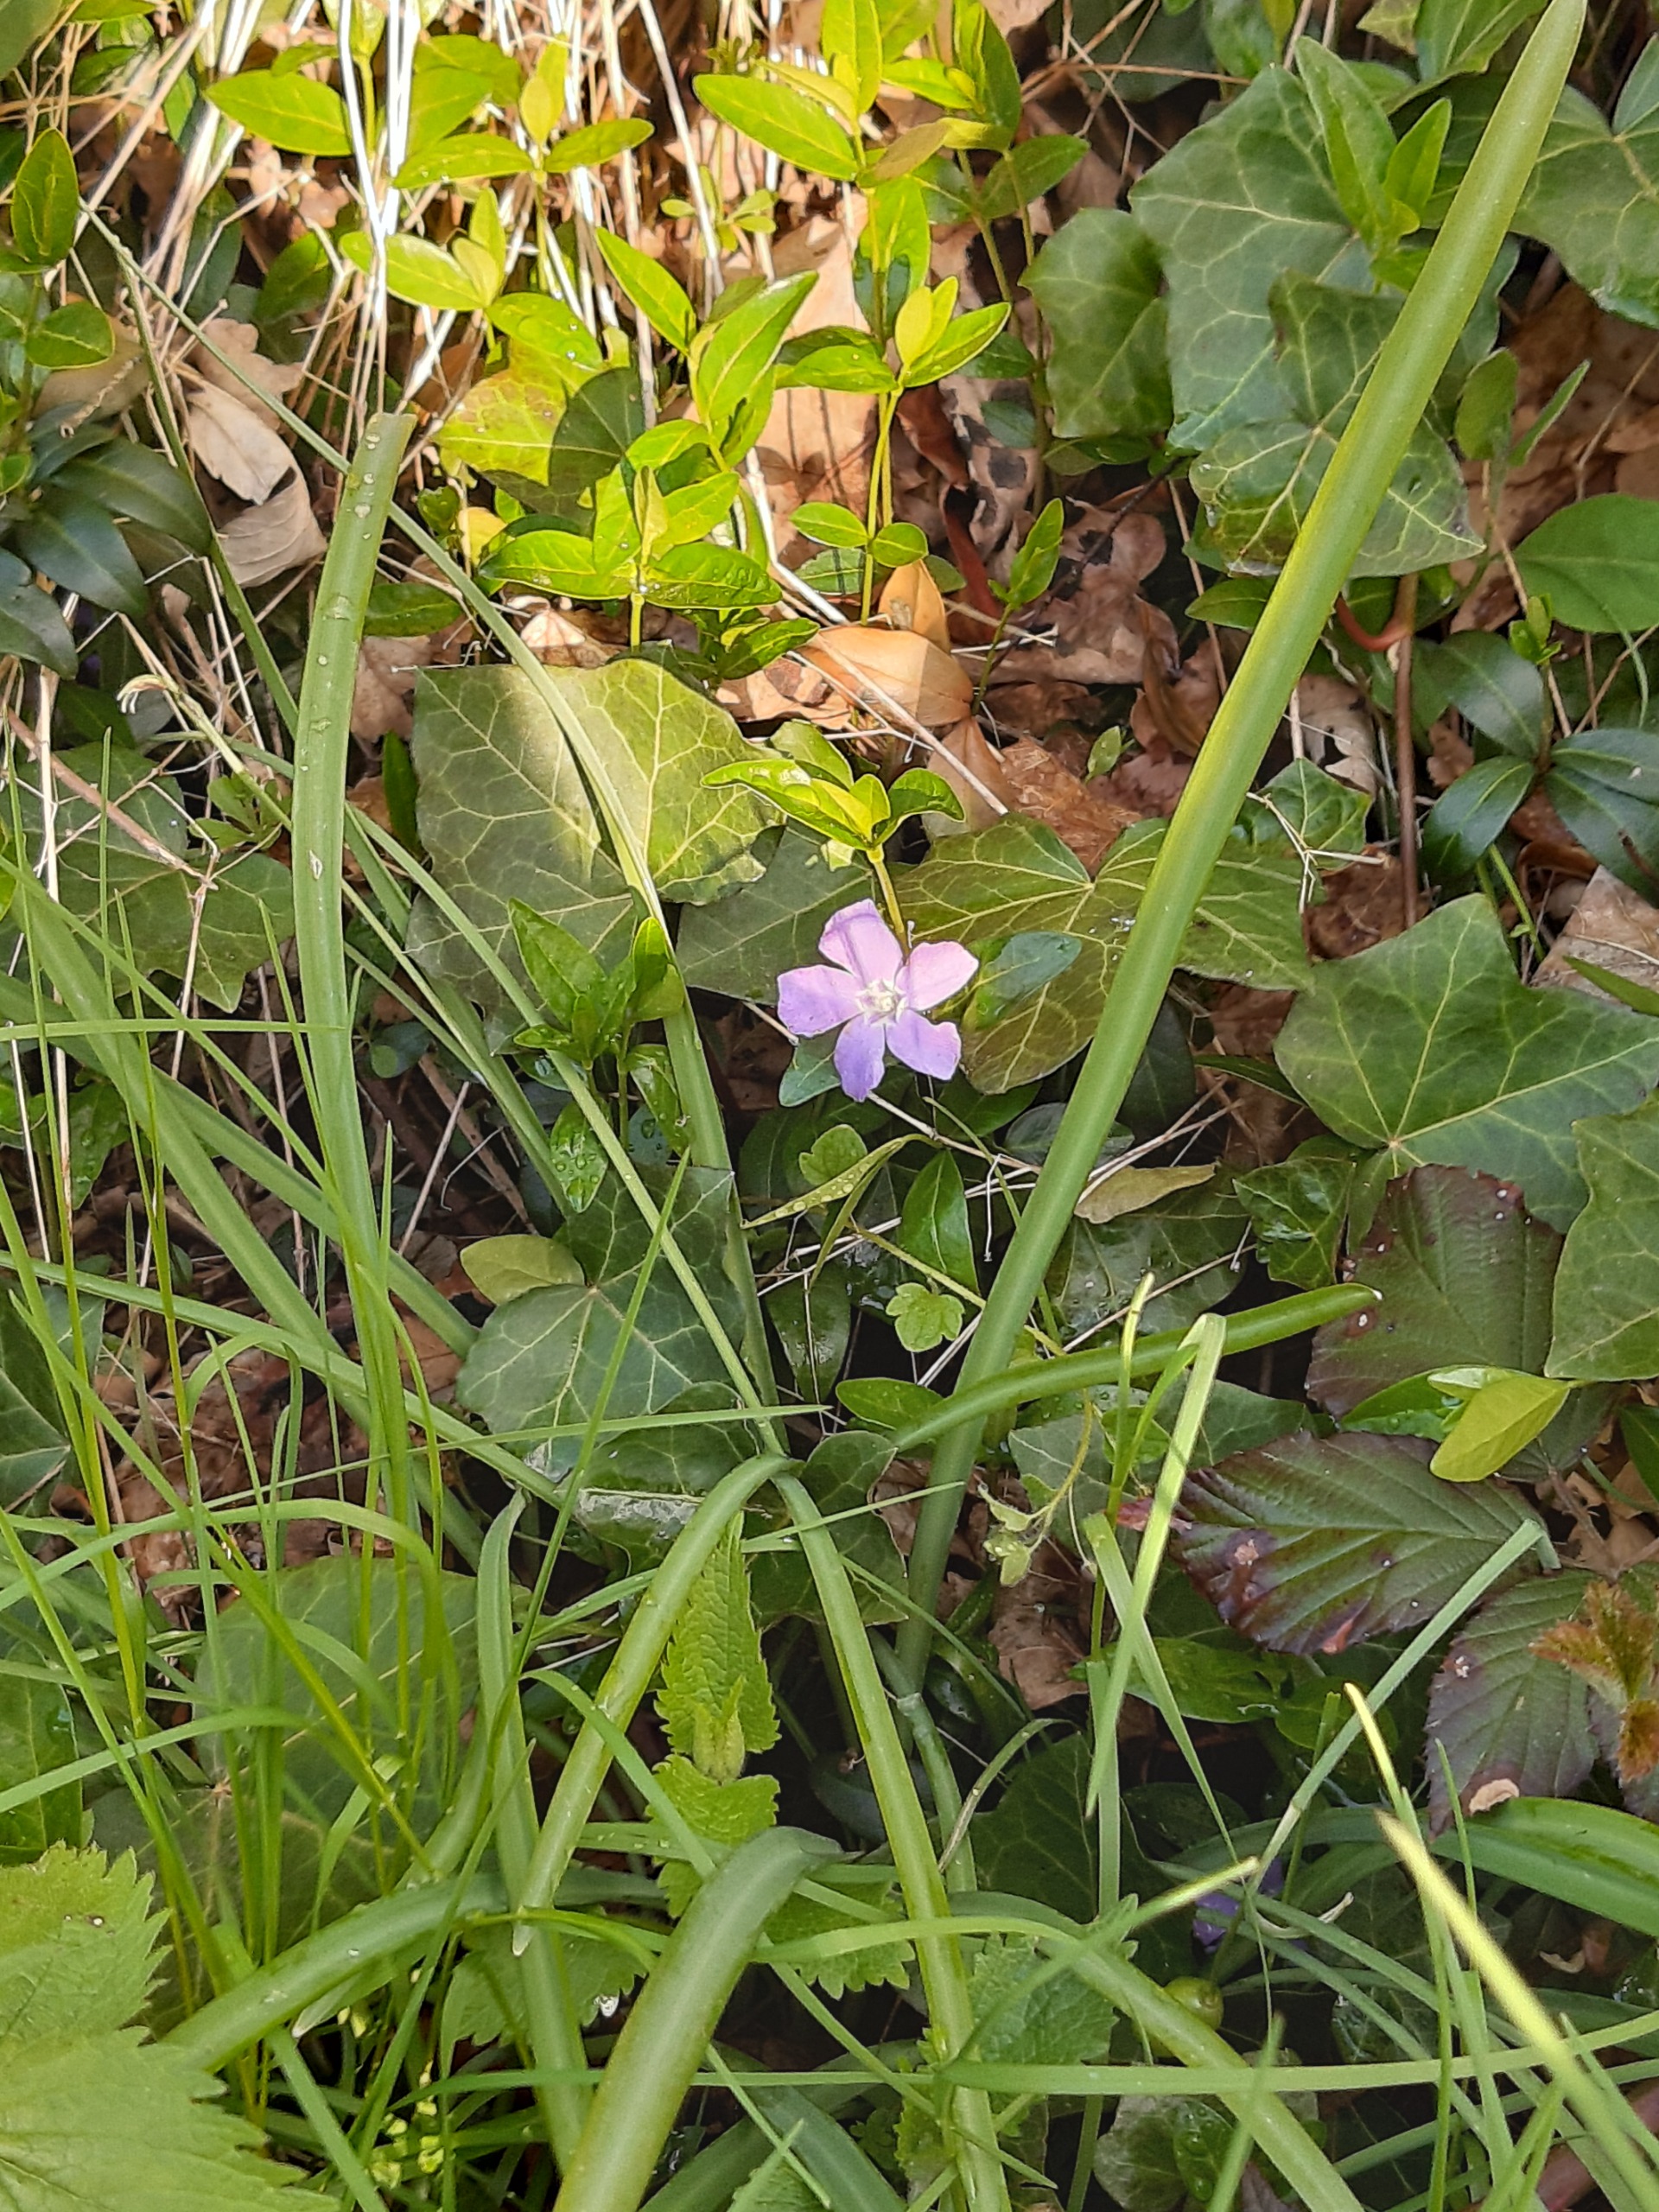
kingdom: Plantae
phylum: Tracheophyta
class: Magnoliopsida
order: Gentianales
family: Apocynaceae
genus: Vinca
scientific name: Vinca minor
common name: Liden singrøn
